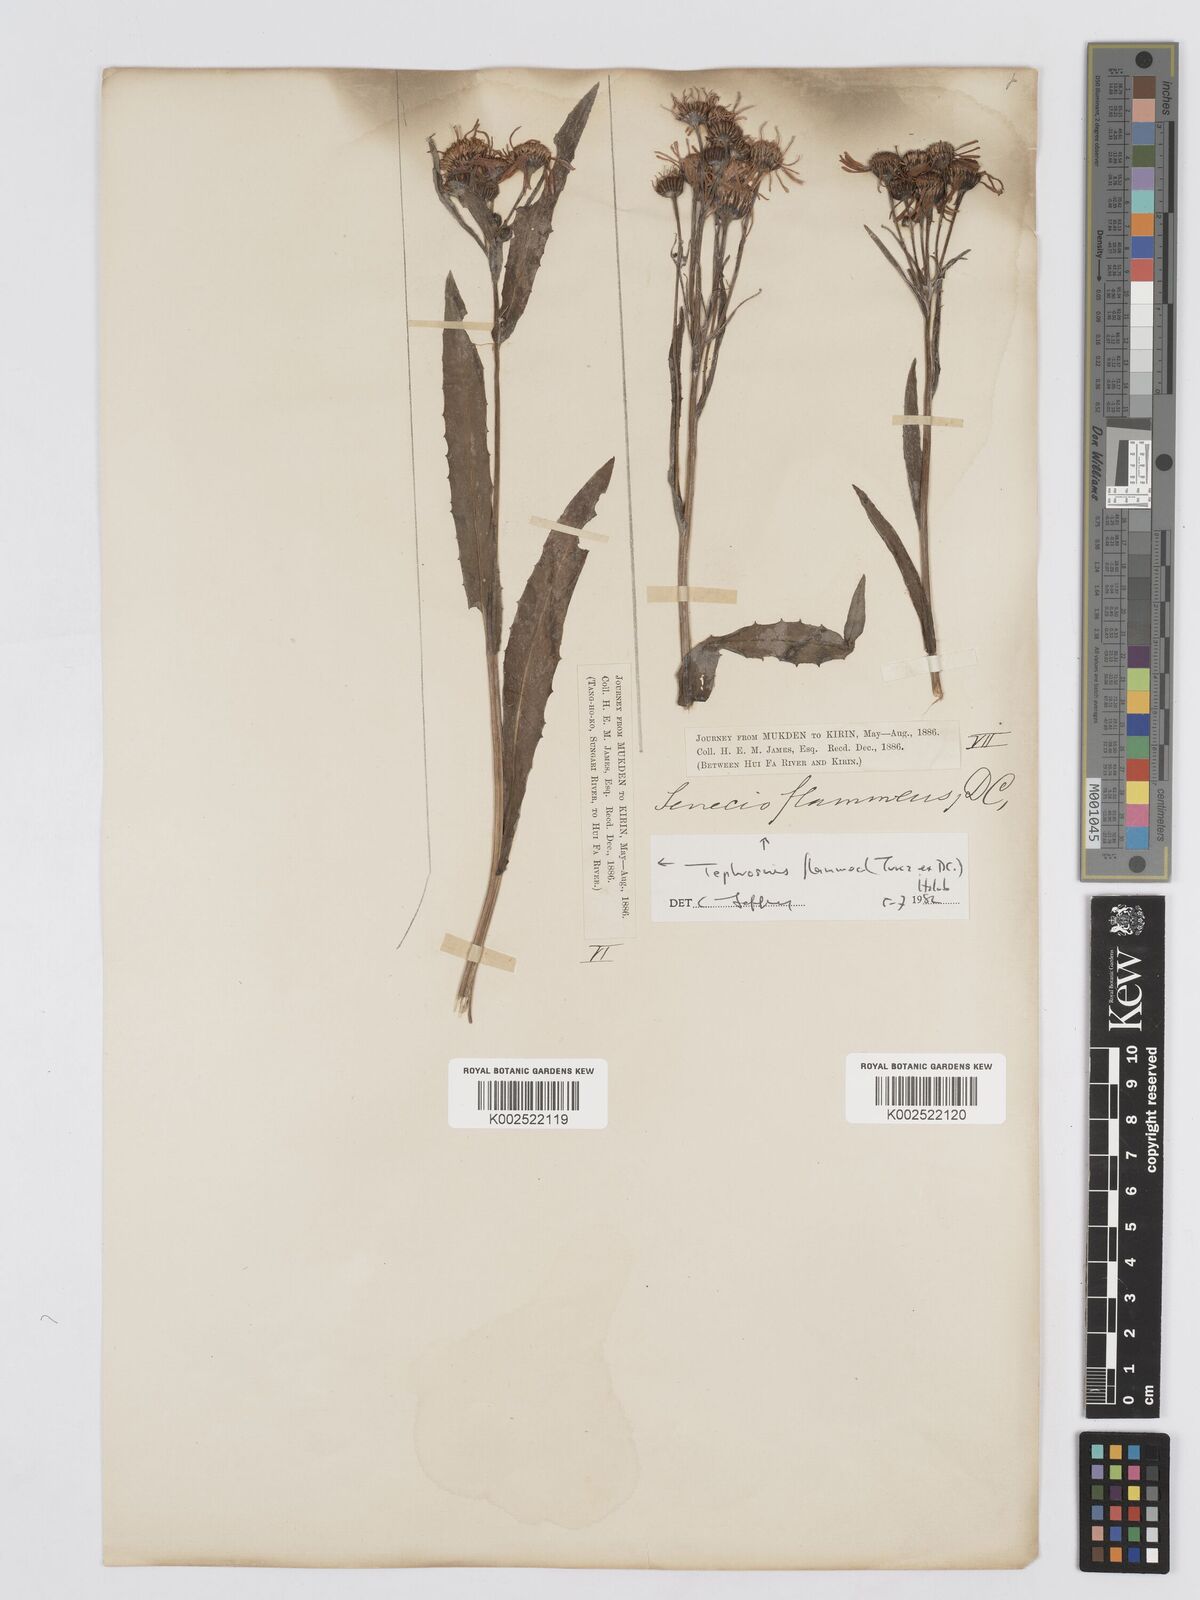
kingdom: Plantae
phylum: Tracheophyta
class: Magnoliopsida
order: Asterales
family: Asteraceae
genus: Tephroseris
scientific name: Tephroseris flammea
